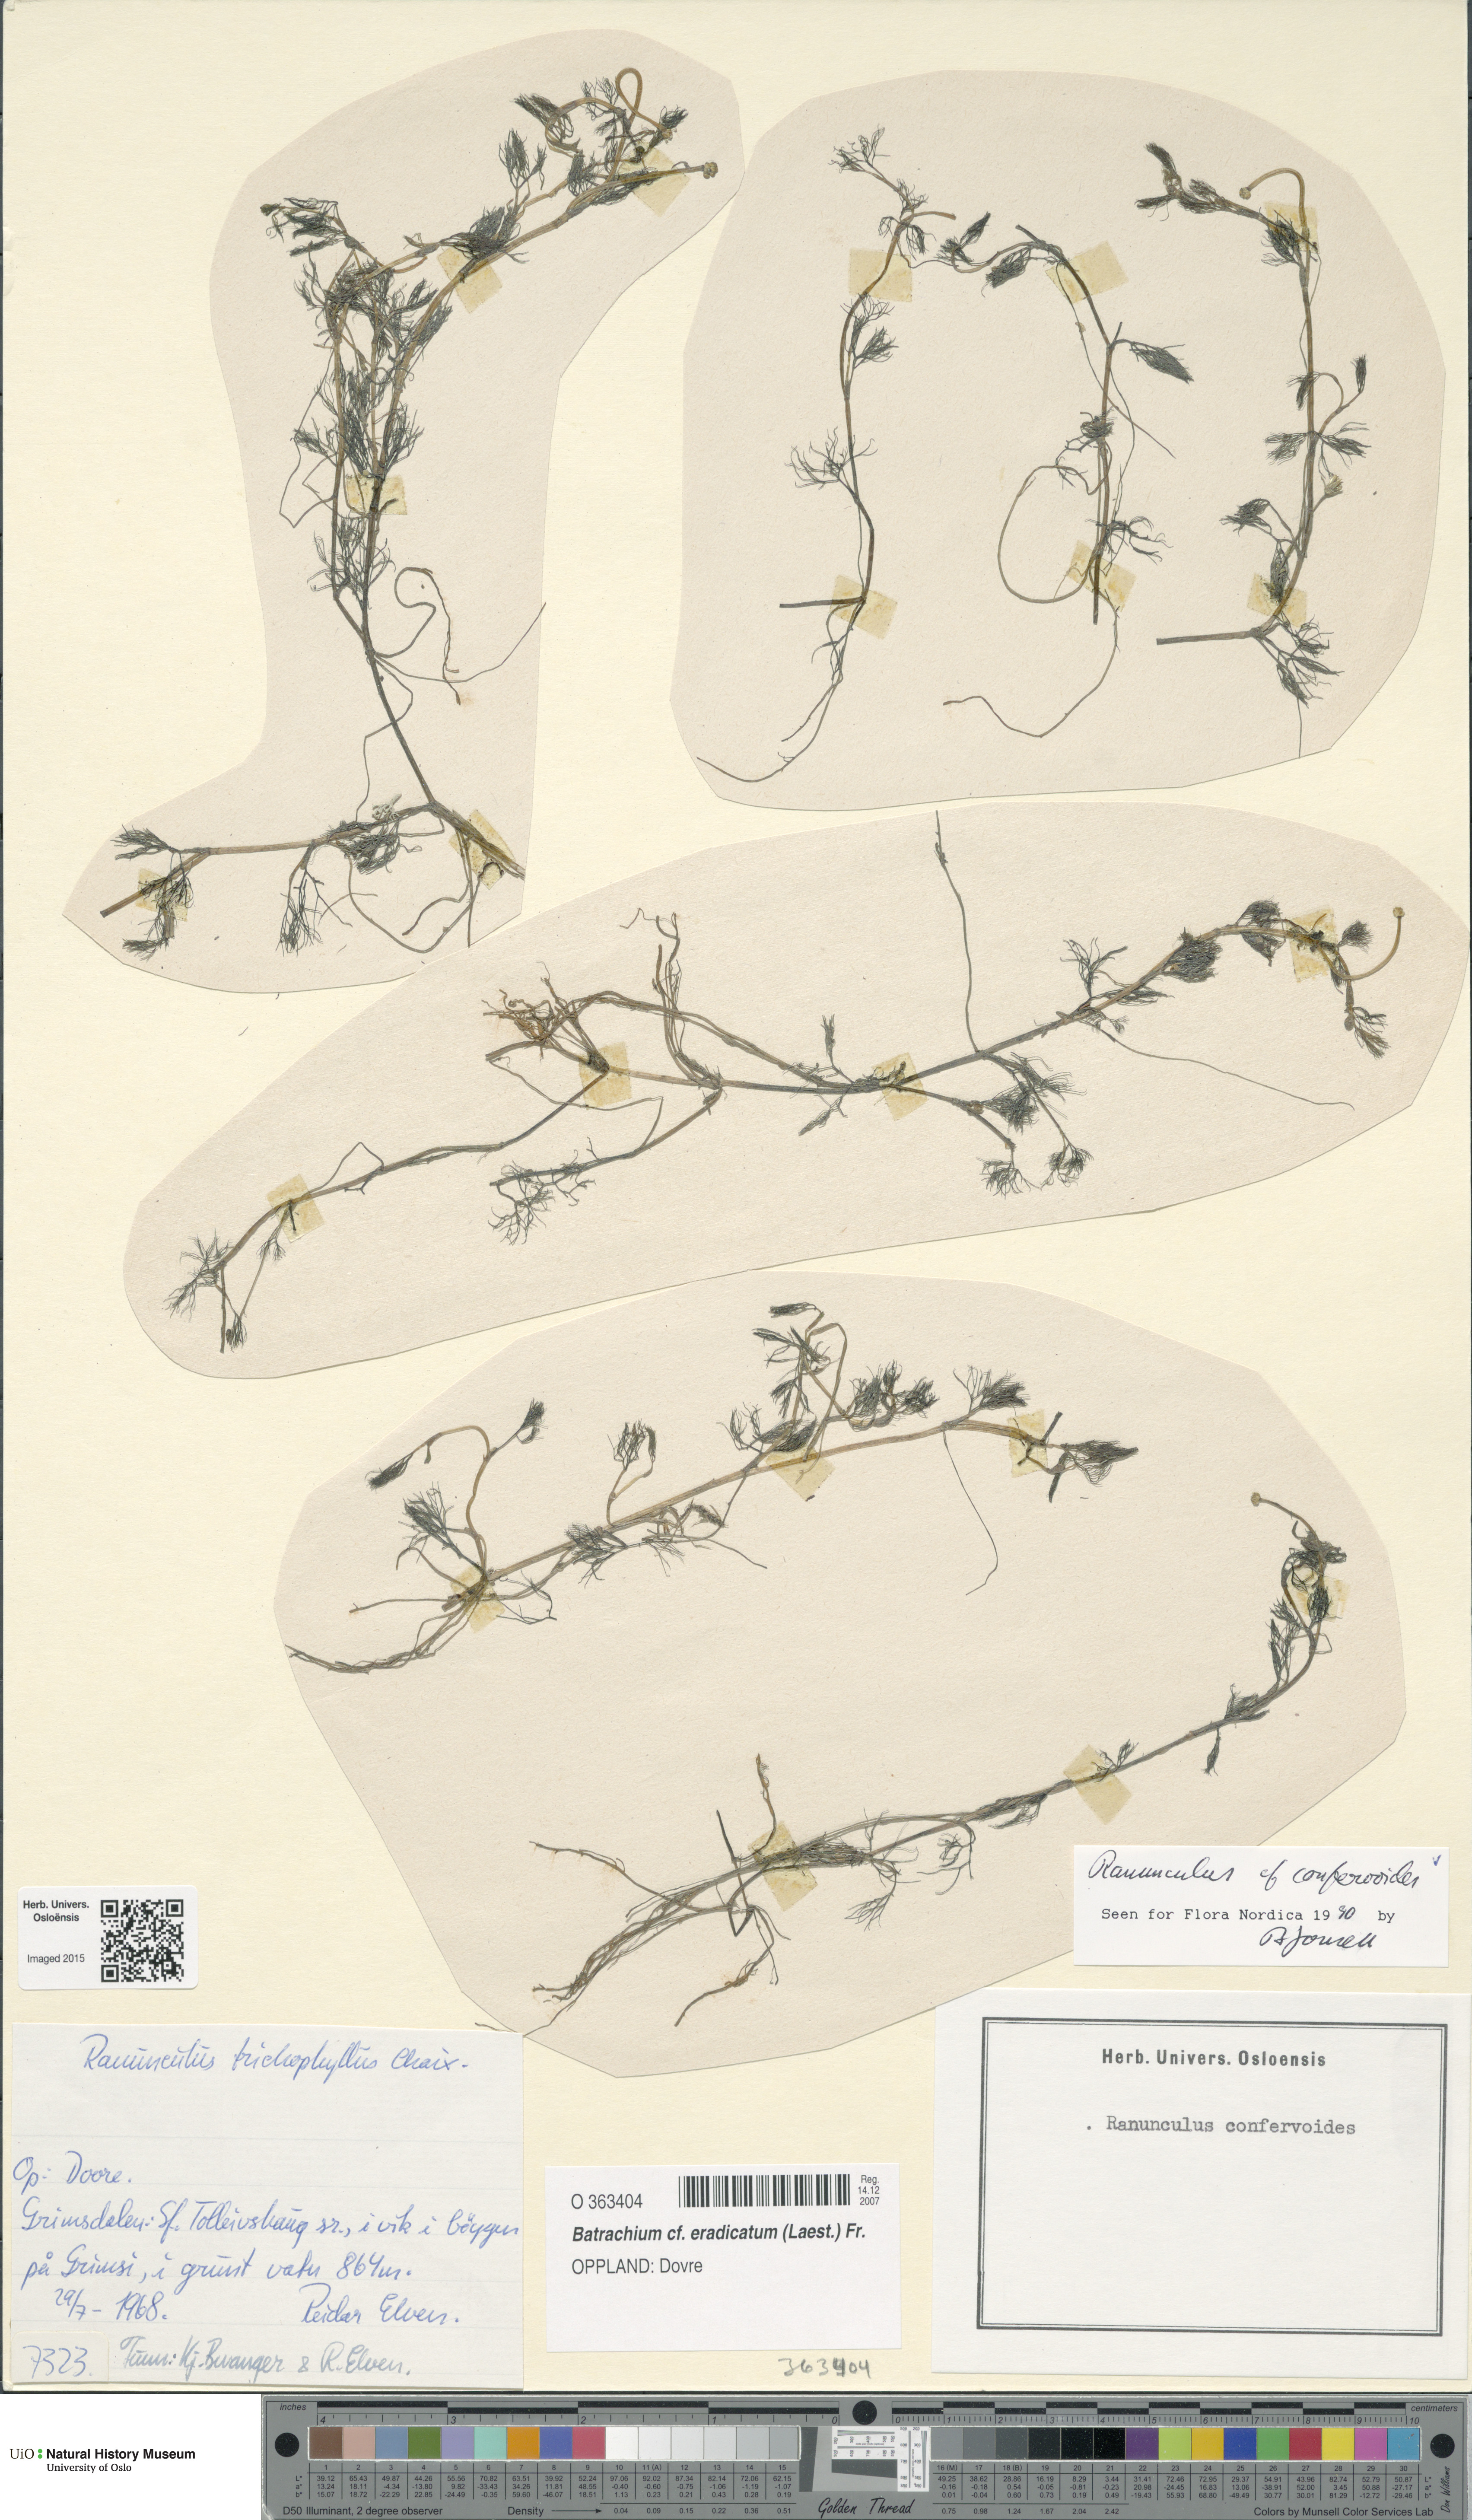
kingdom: Plantae
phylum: Tracheophyta
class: Magnoliopsida
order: Ranunculales
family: Ranunculaceae
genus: Ranunculus
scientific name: Ranunculus confervoides
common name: Delicate buttercup
